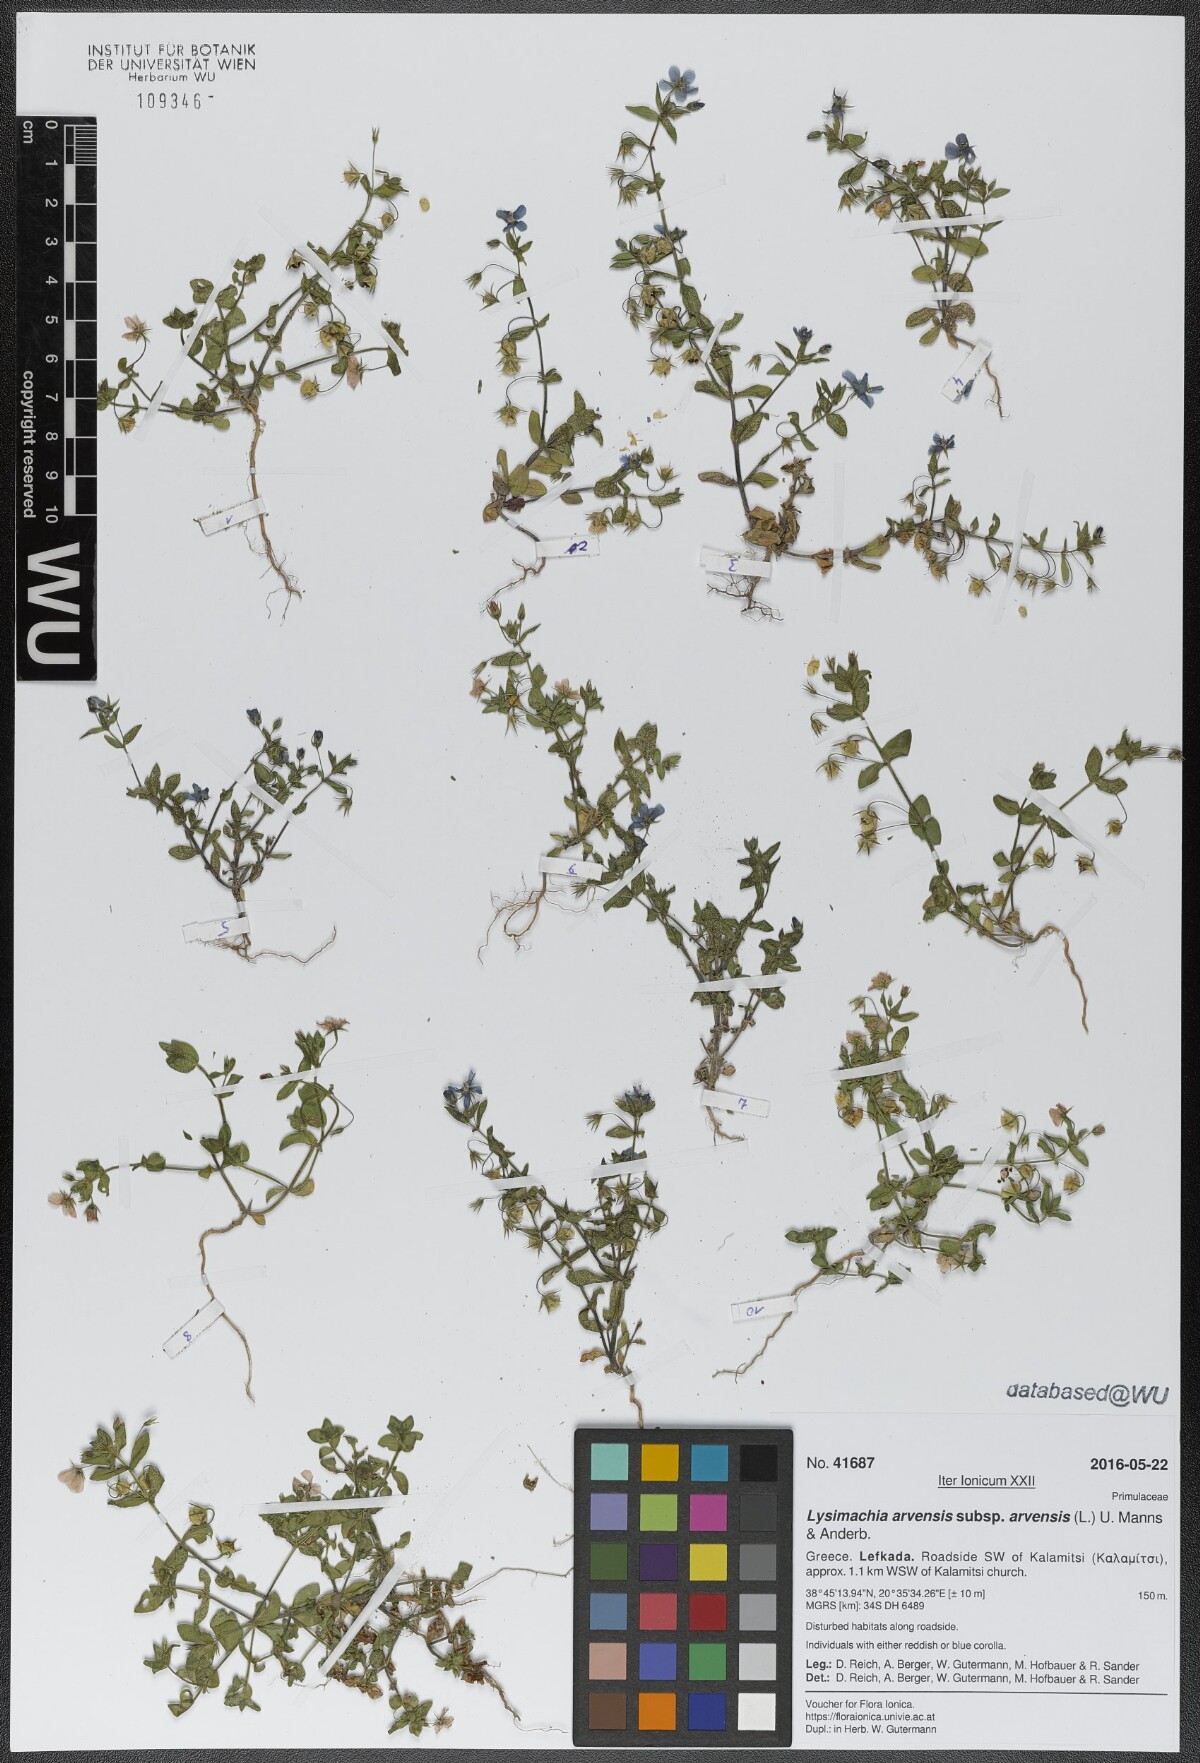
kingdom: Plantae
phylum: Tracheophyta
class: Magnoliopsida
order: Ericales
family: Primulaceae
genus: Lysimachia
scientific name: Lysimachia arvensis
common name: Scarlet pimpernel
